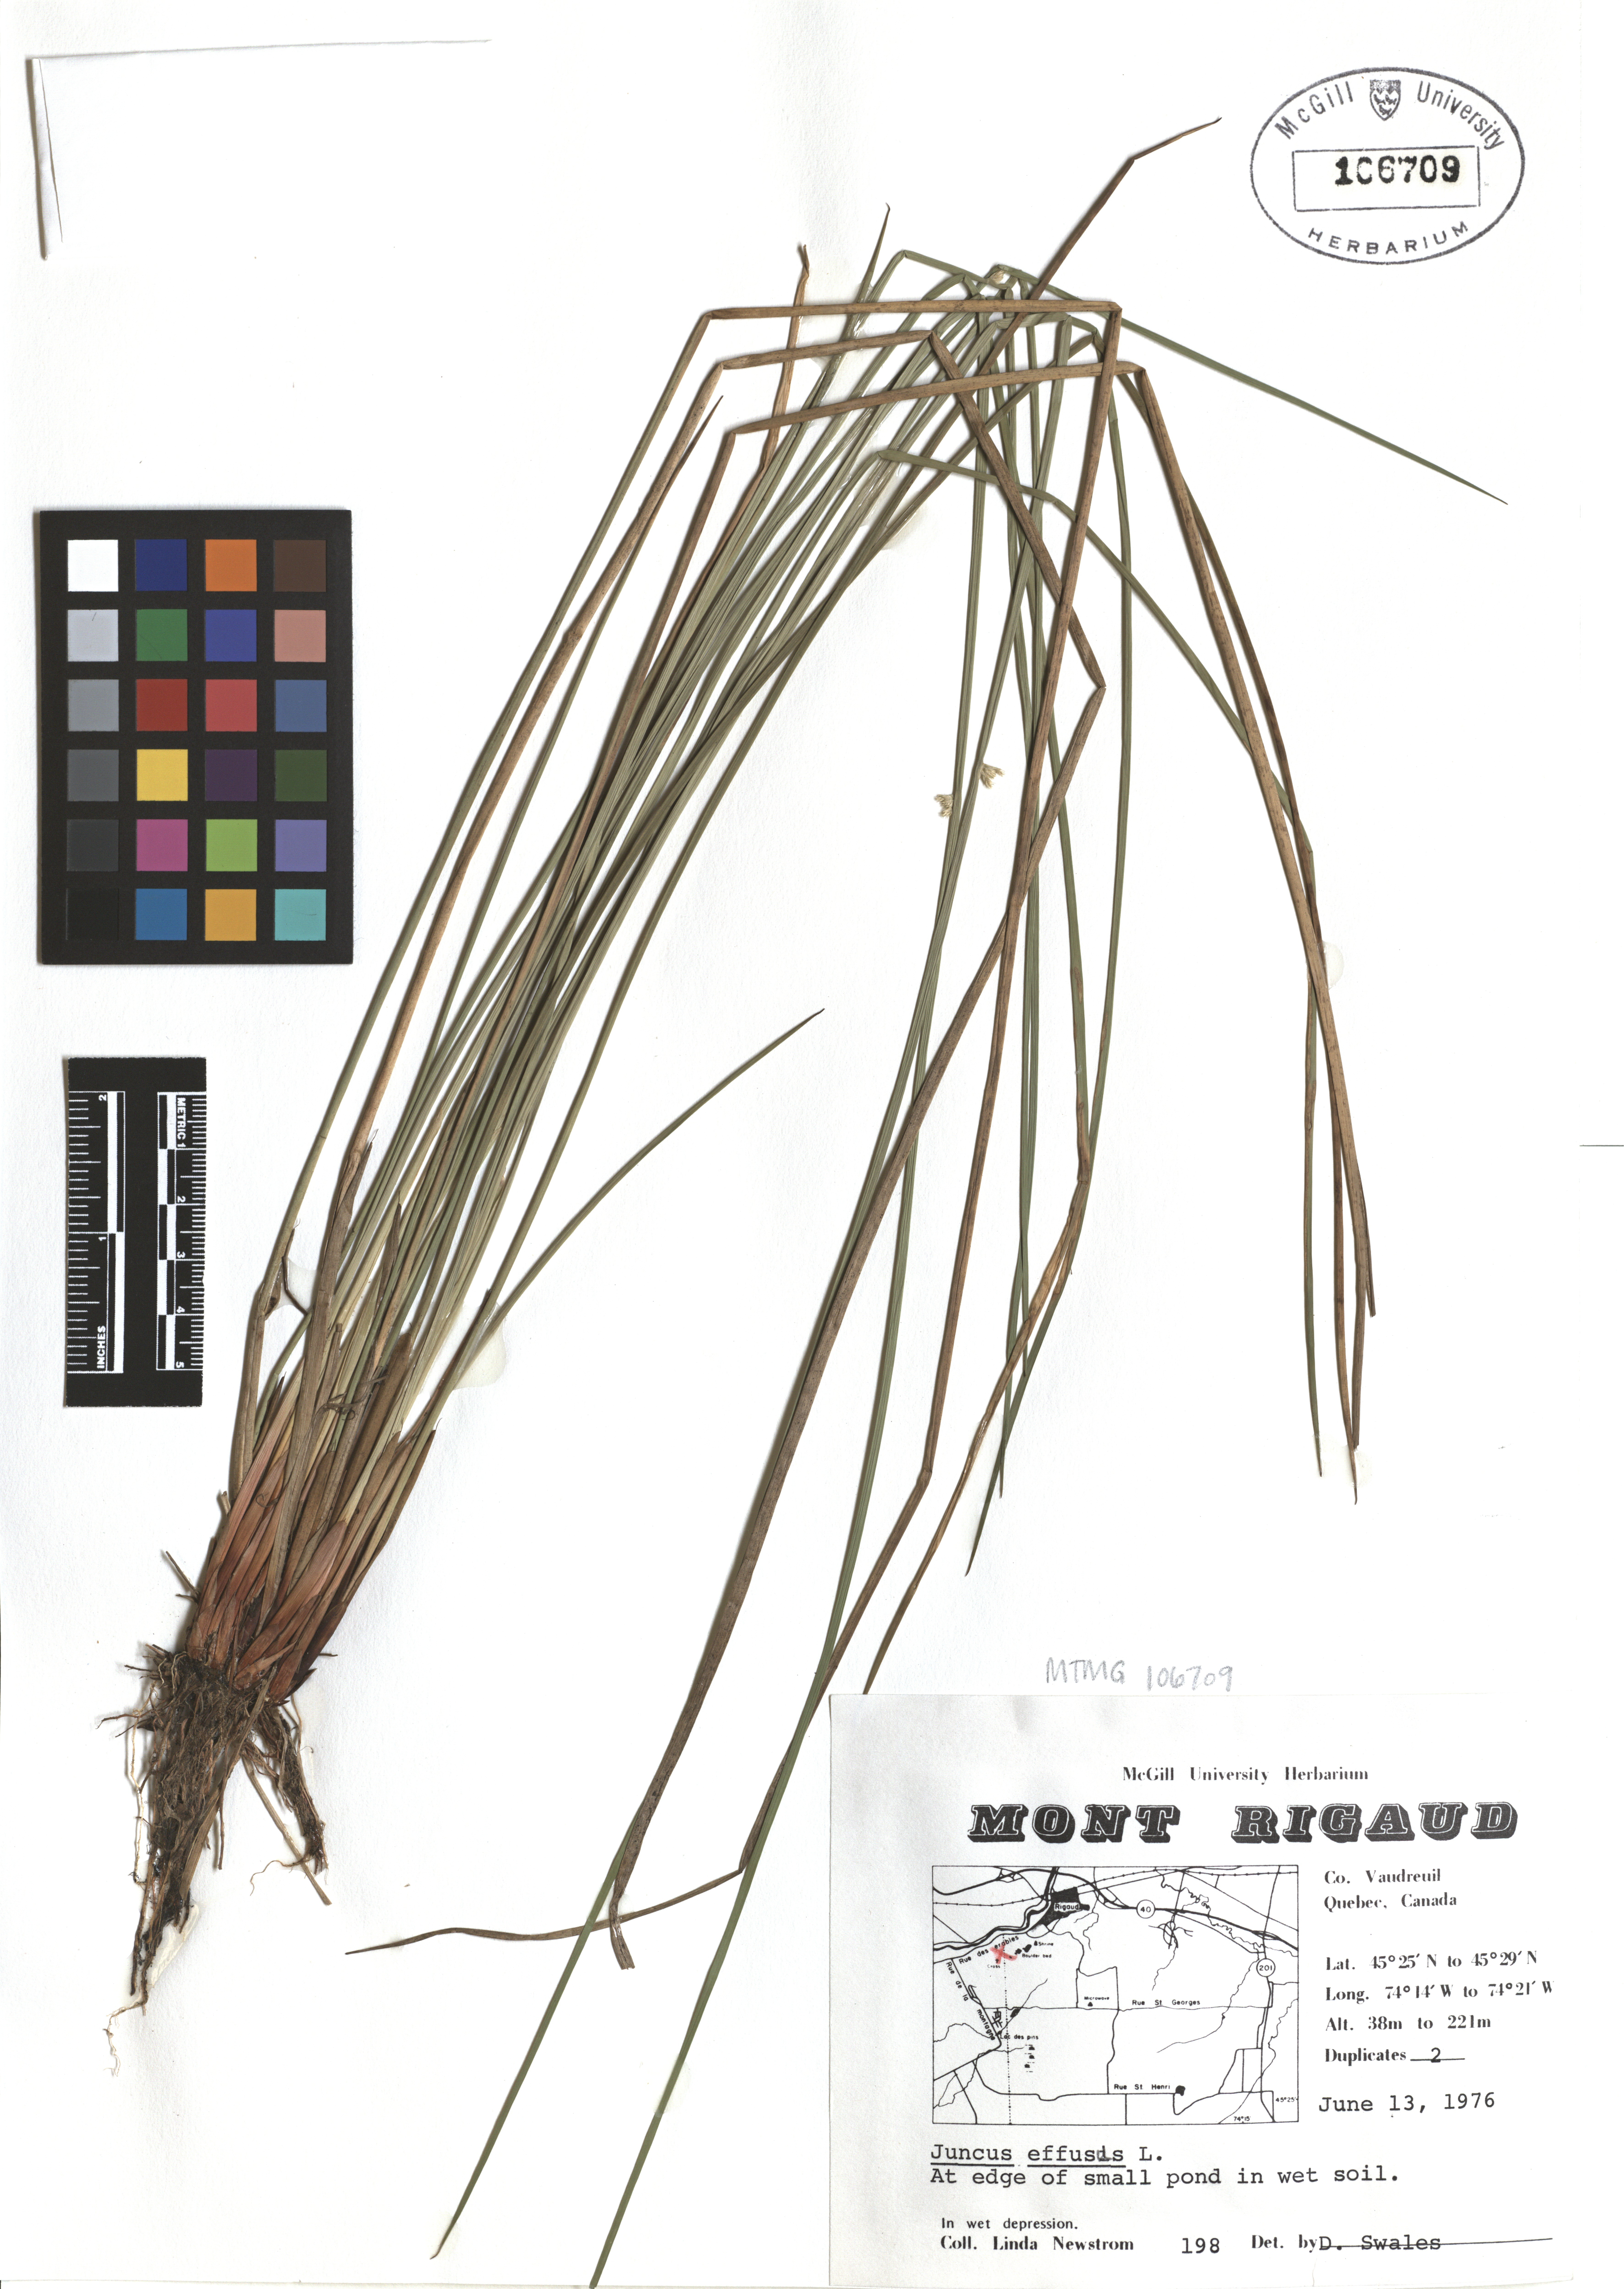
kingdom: Plantae
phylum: Tracheophyta
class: Liliopsida
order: Poales
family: Juncaceae
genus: Juncus
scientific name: Juncus effusus
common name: Soft rush
